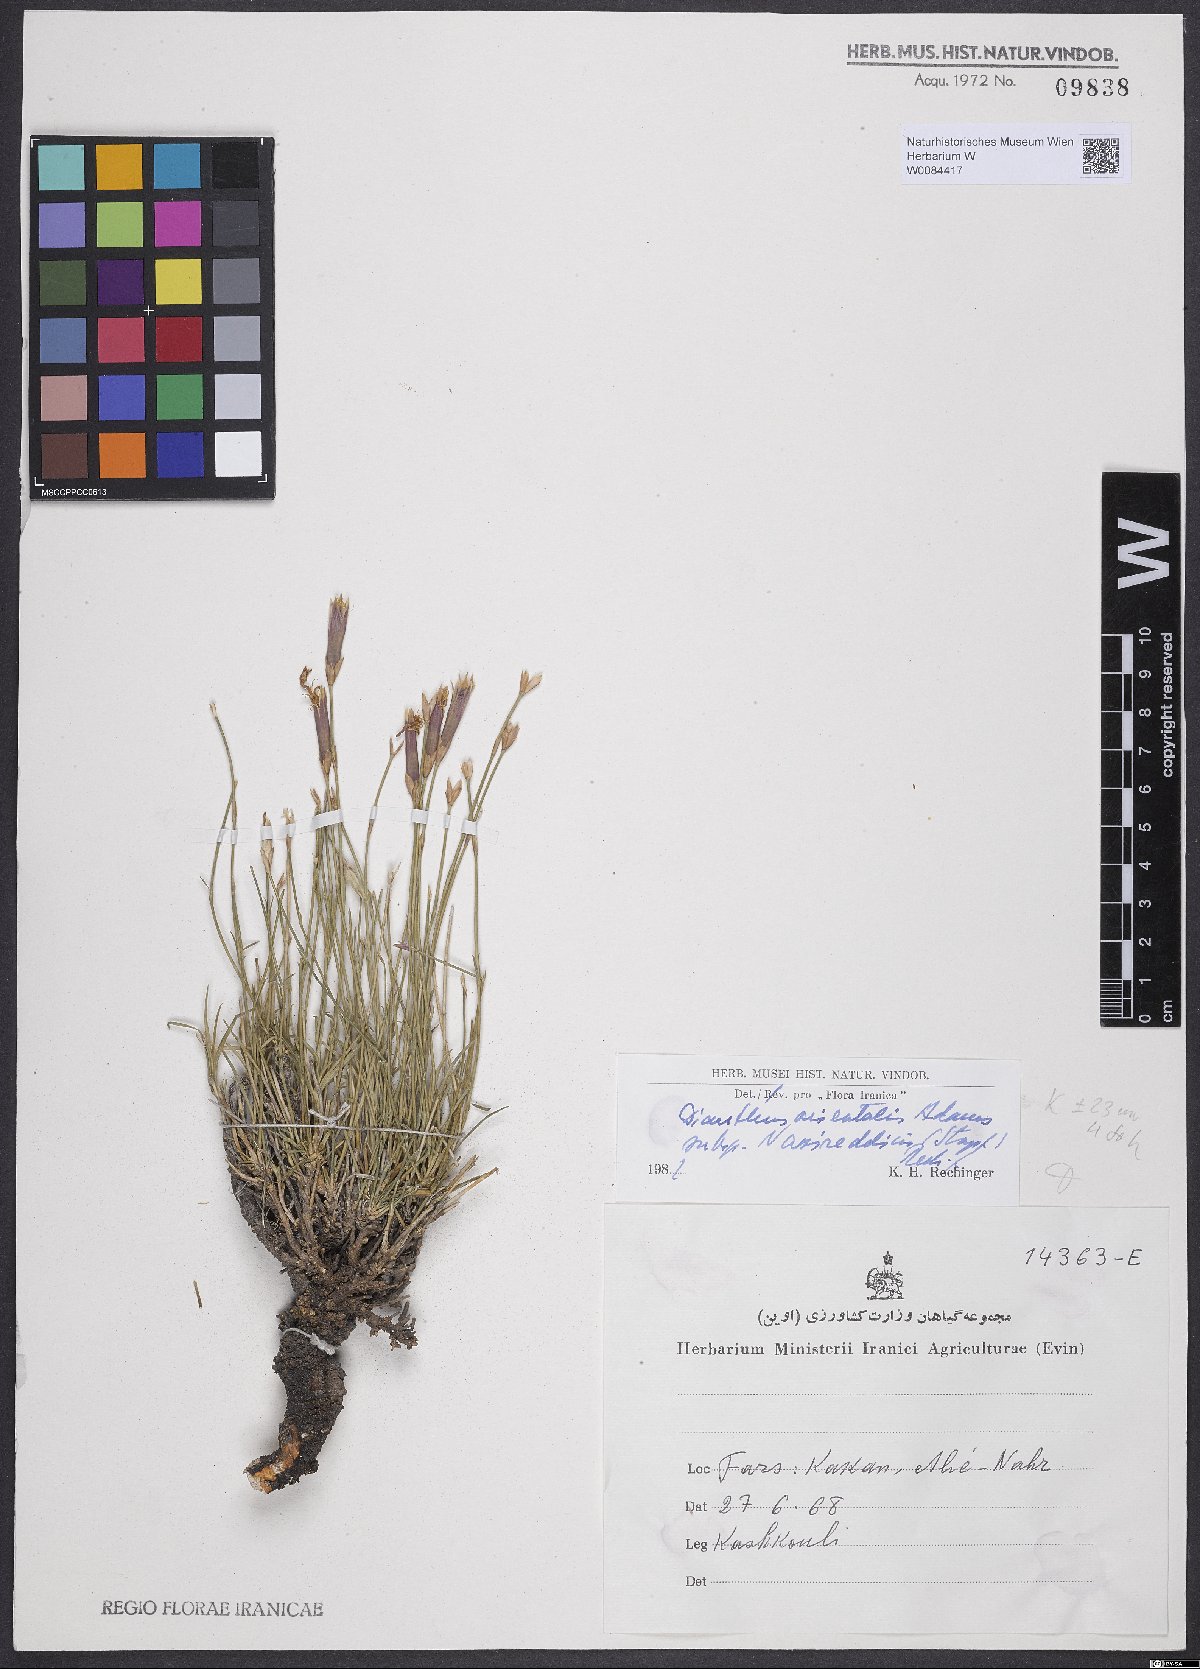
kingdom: Plantae
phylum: Tracheophyta
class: Magnoliopsida
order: Caryophyllales
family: Caryophyllaceae
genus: Dianthus
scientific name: Dianthus orientalis
